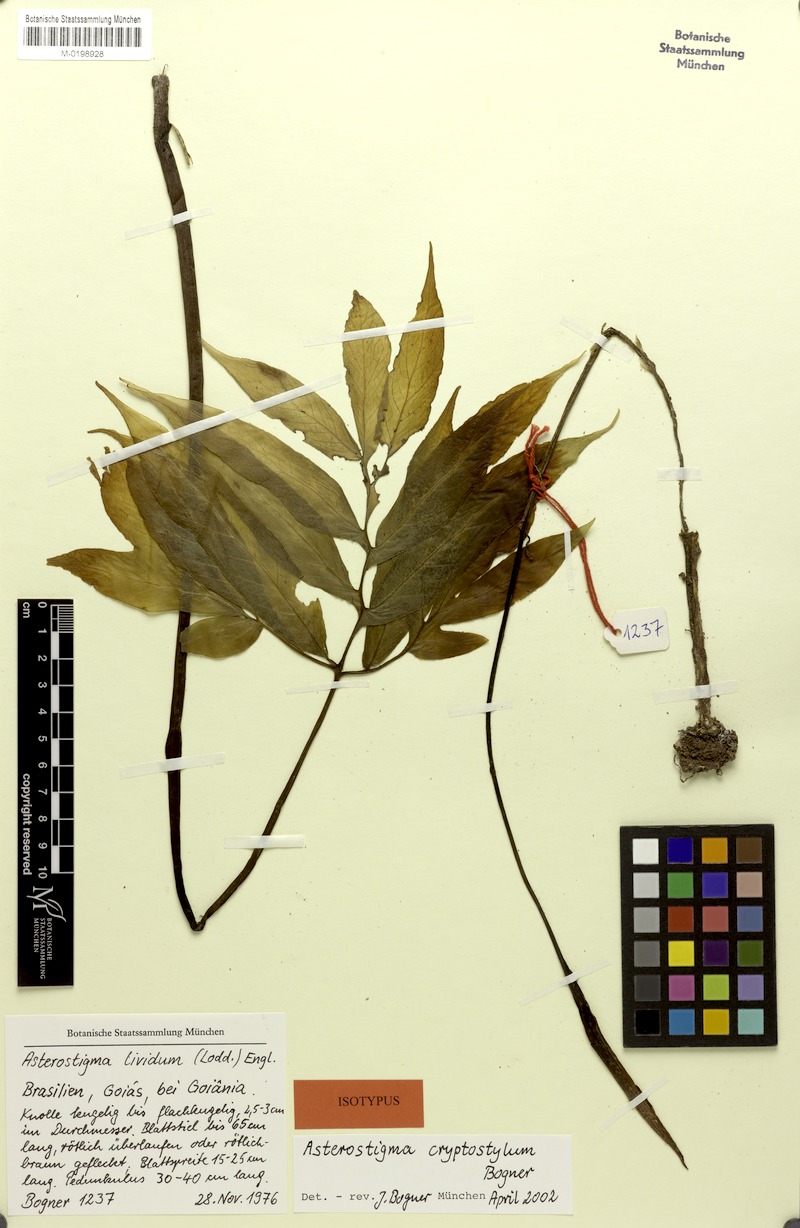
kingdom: Plantae
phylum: Tracheophyta
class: Liliopsida
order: Alismatales
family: Araceae
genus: Asterostigma
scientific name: Asterostigma cryptostylum
